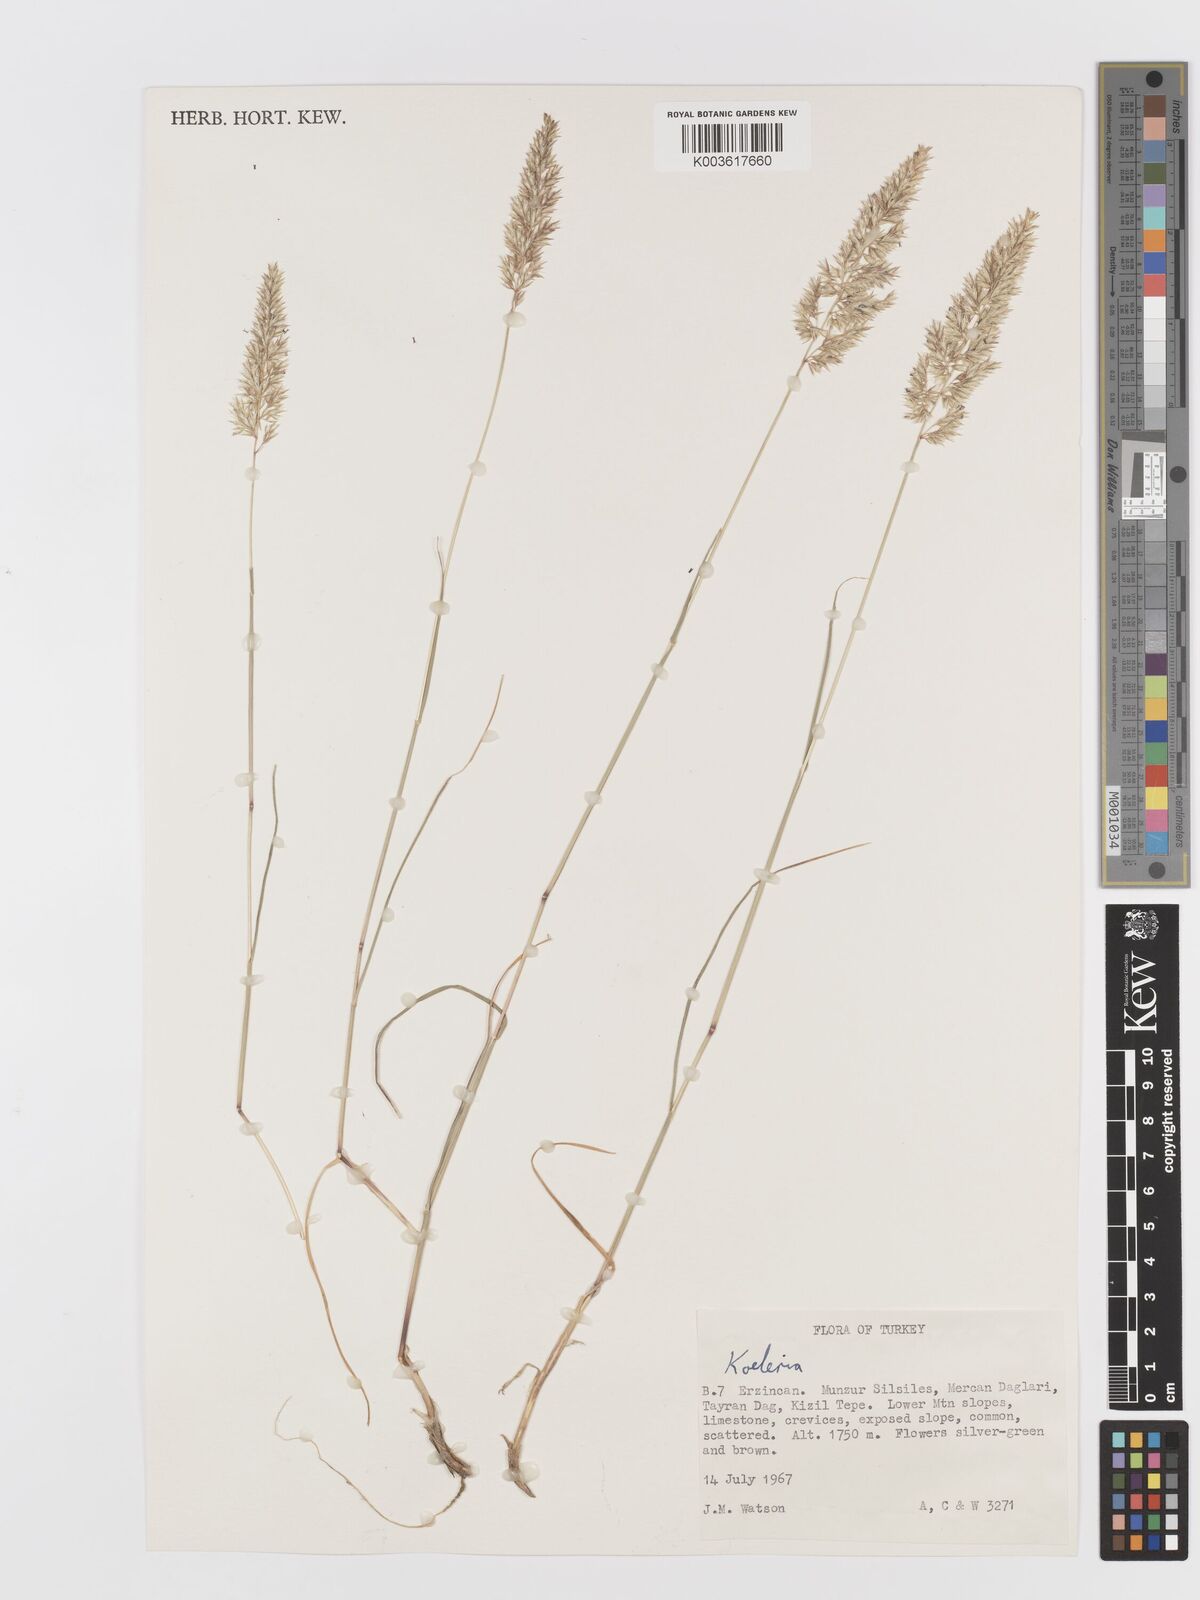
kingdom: Plantae
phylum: Tracheophyta
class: Liliopsida
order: Poales
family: Poaceae
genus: Koeleria
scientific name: Koeleria
